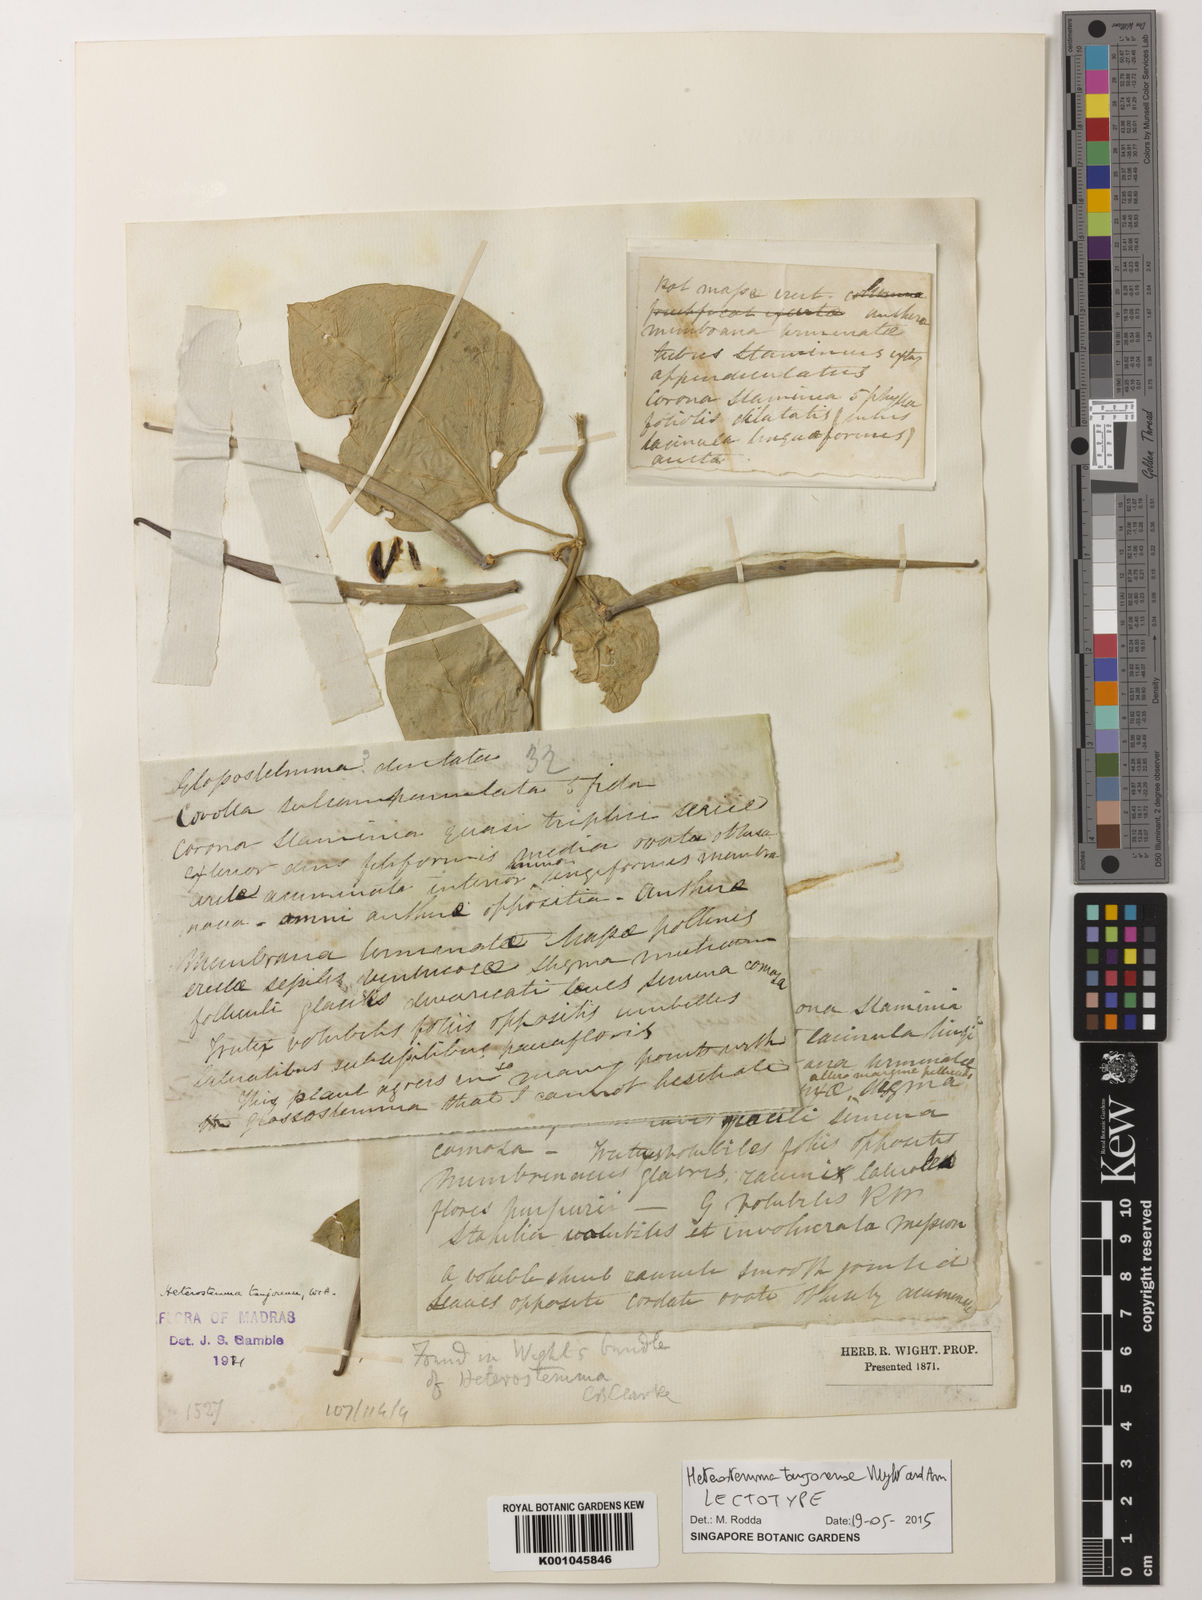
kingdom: Plantae
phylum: Tracheophyta
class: Magnoliopsida
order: Gentianales
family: Apocynaceae
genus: Heterostemma
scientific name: Heterostemma
